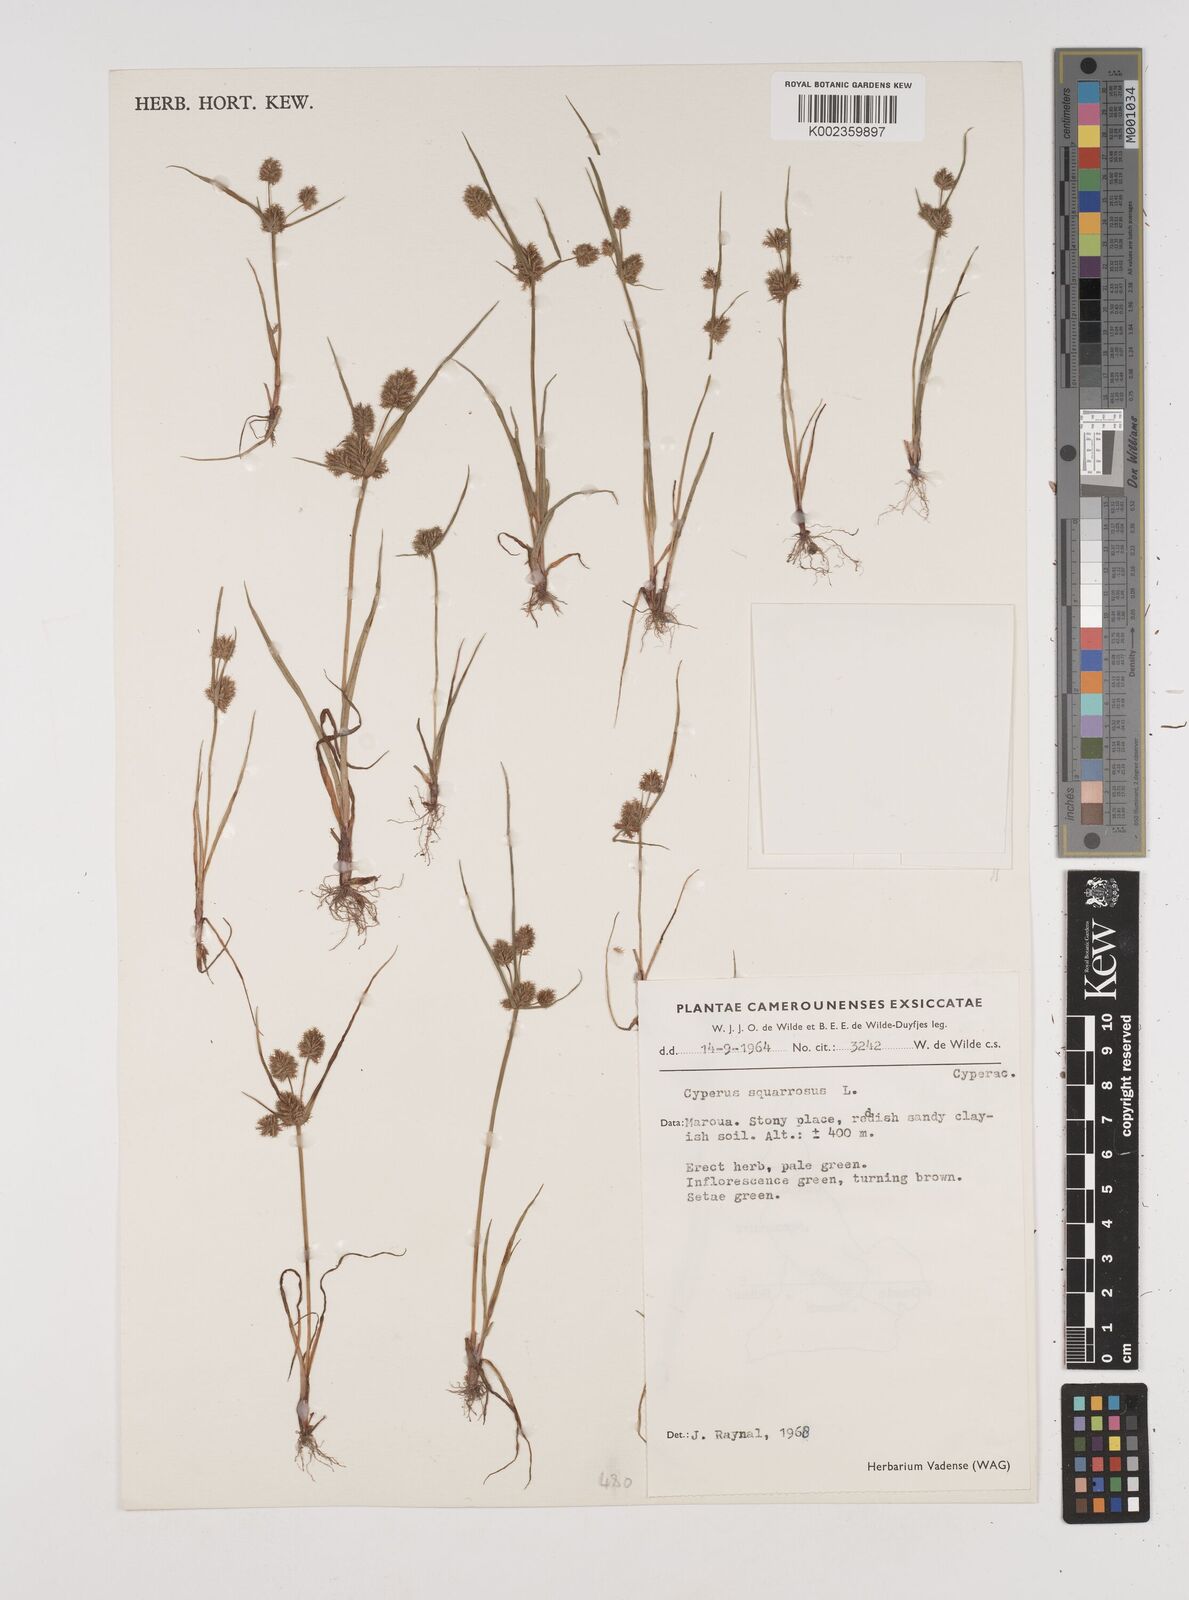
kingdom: Plantae
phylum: Tracheophyta
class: Liliopsida
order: Poales
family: Cyperaceae
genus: Cyperus
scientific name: Cyperus squarrosus
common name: Awned cyperus
